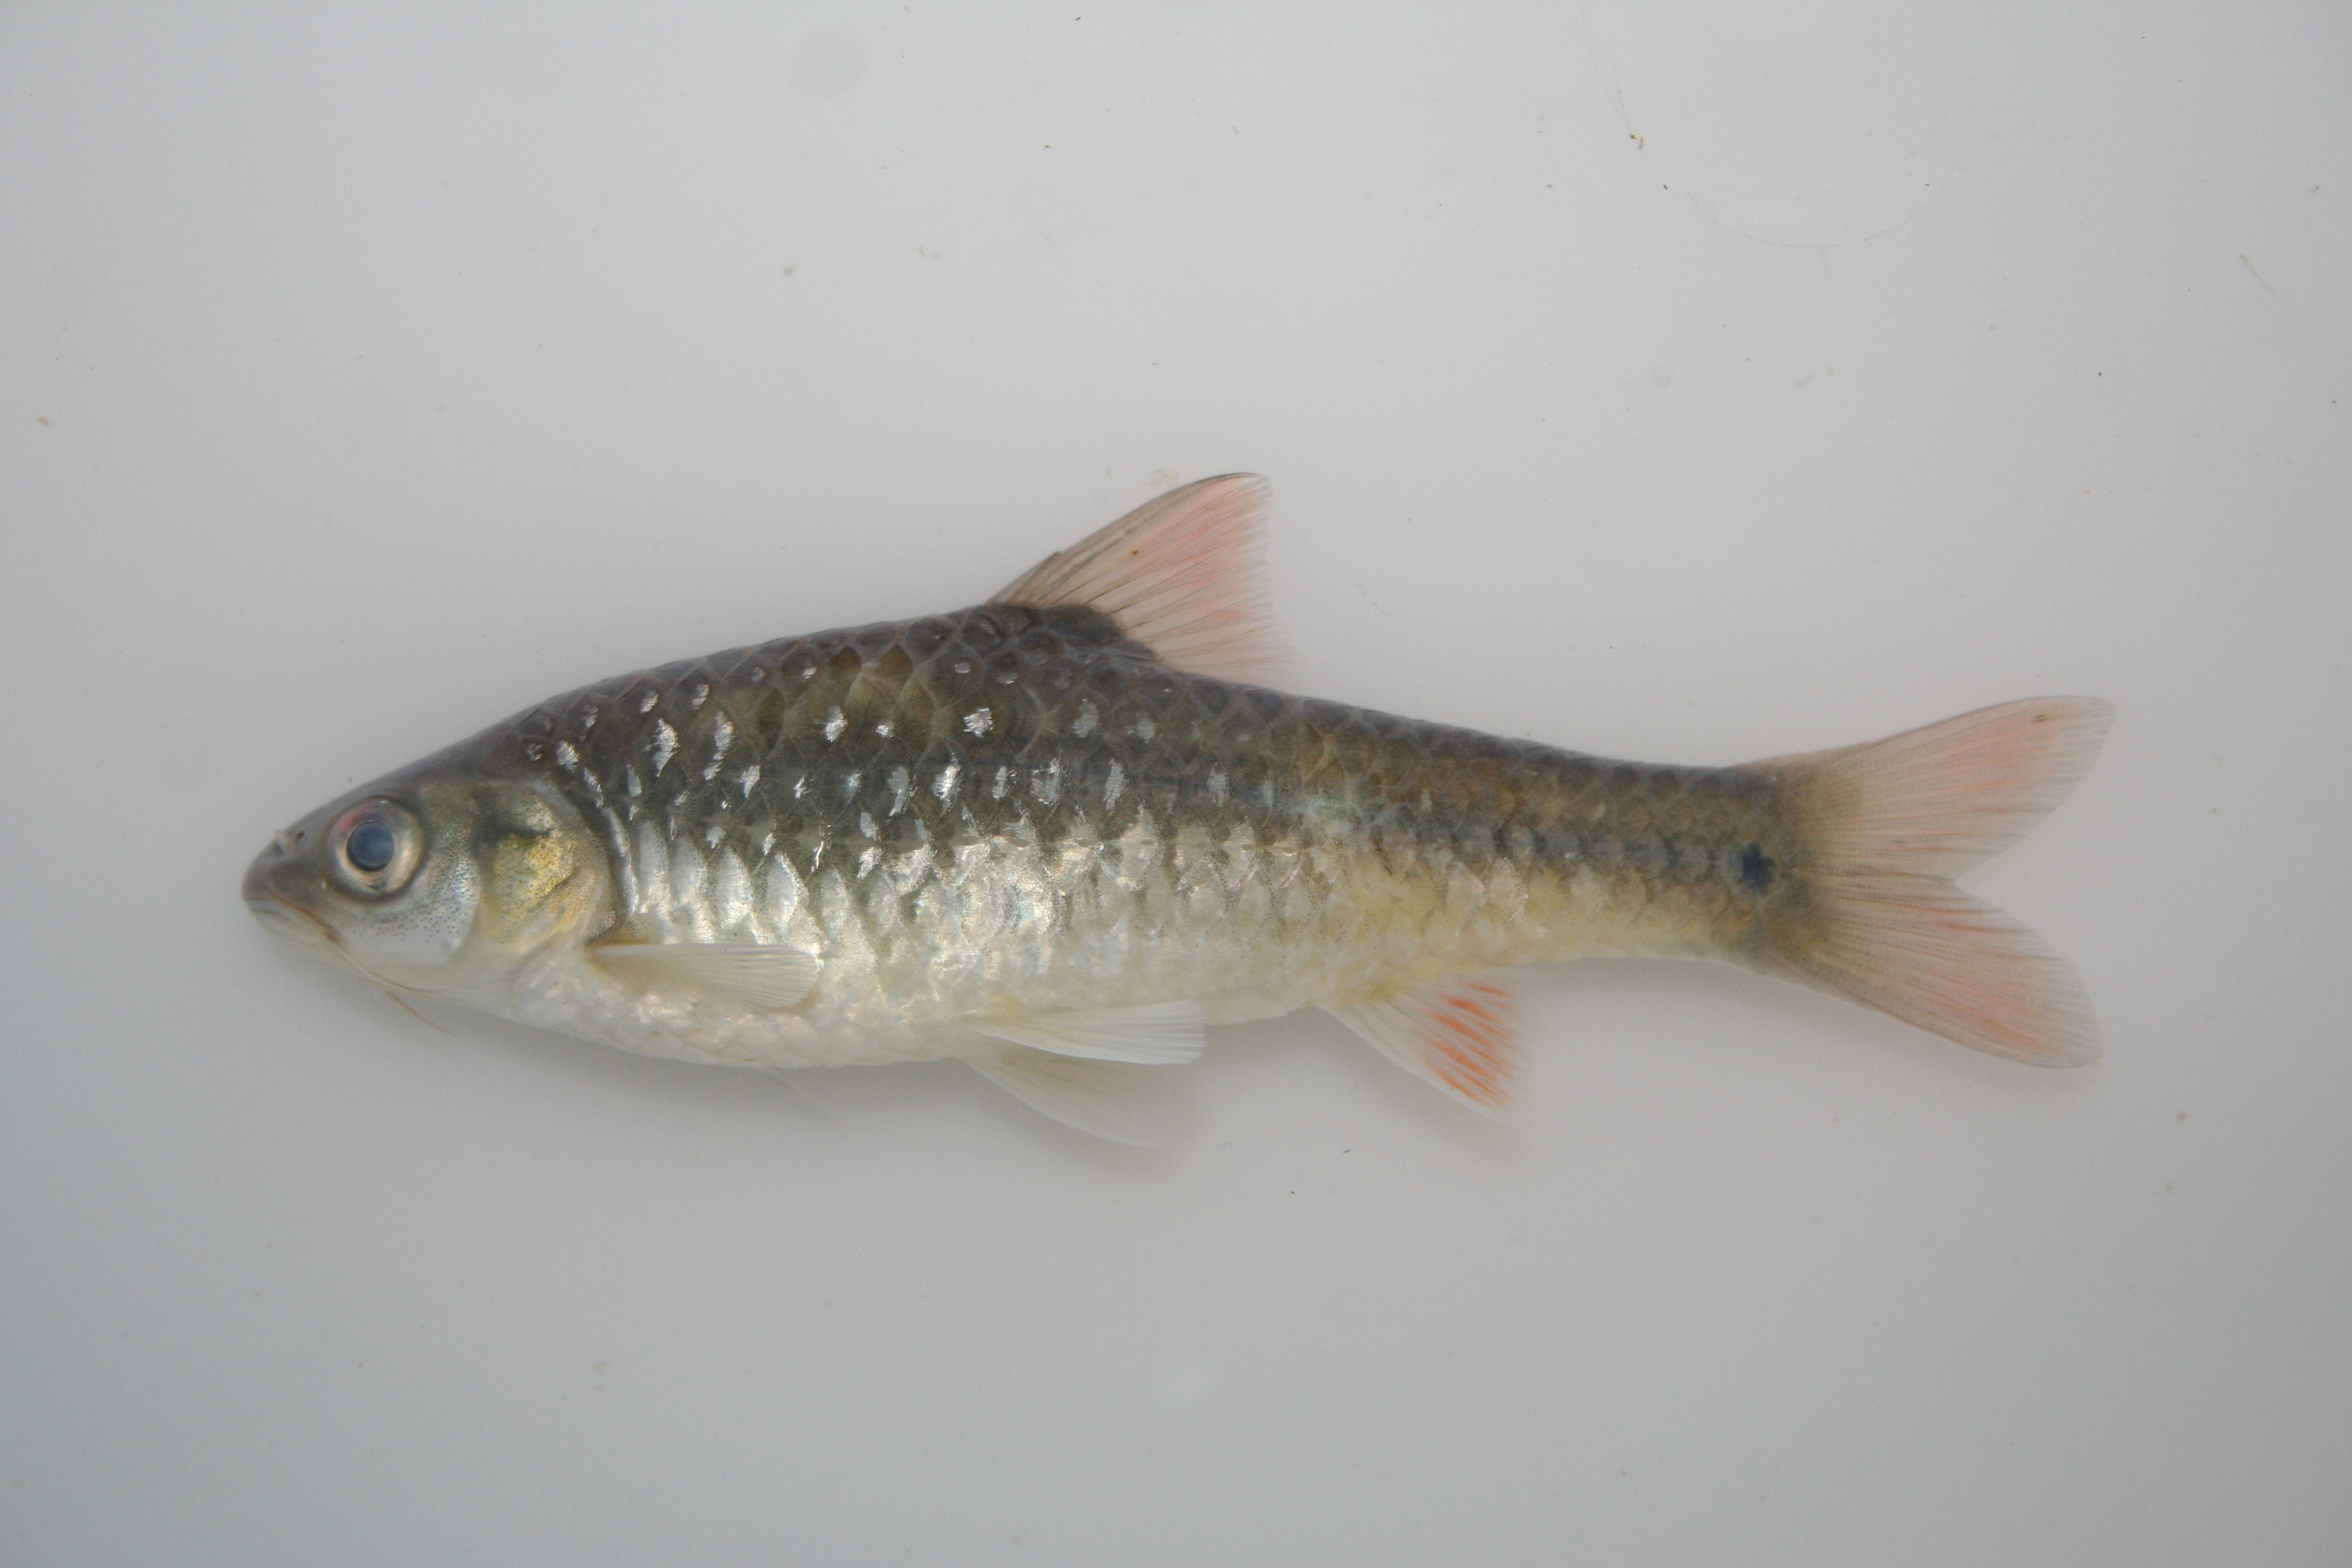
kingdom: Animalia
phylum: Chordata
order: Cypriniformes
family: Cyprinidae
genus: Barbus
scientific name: Barbus
